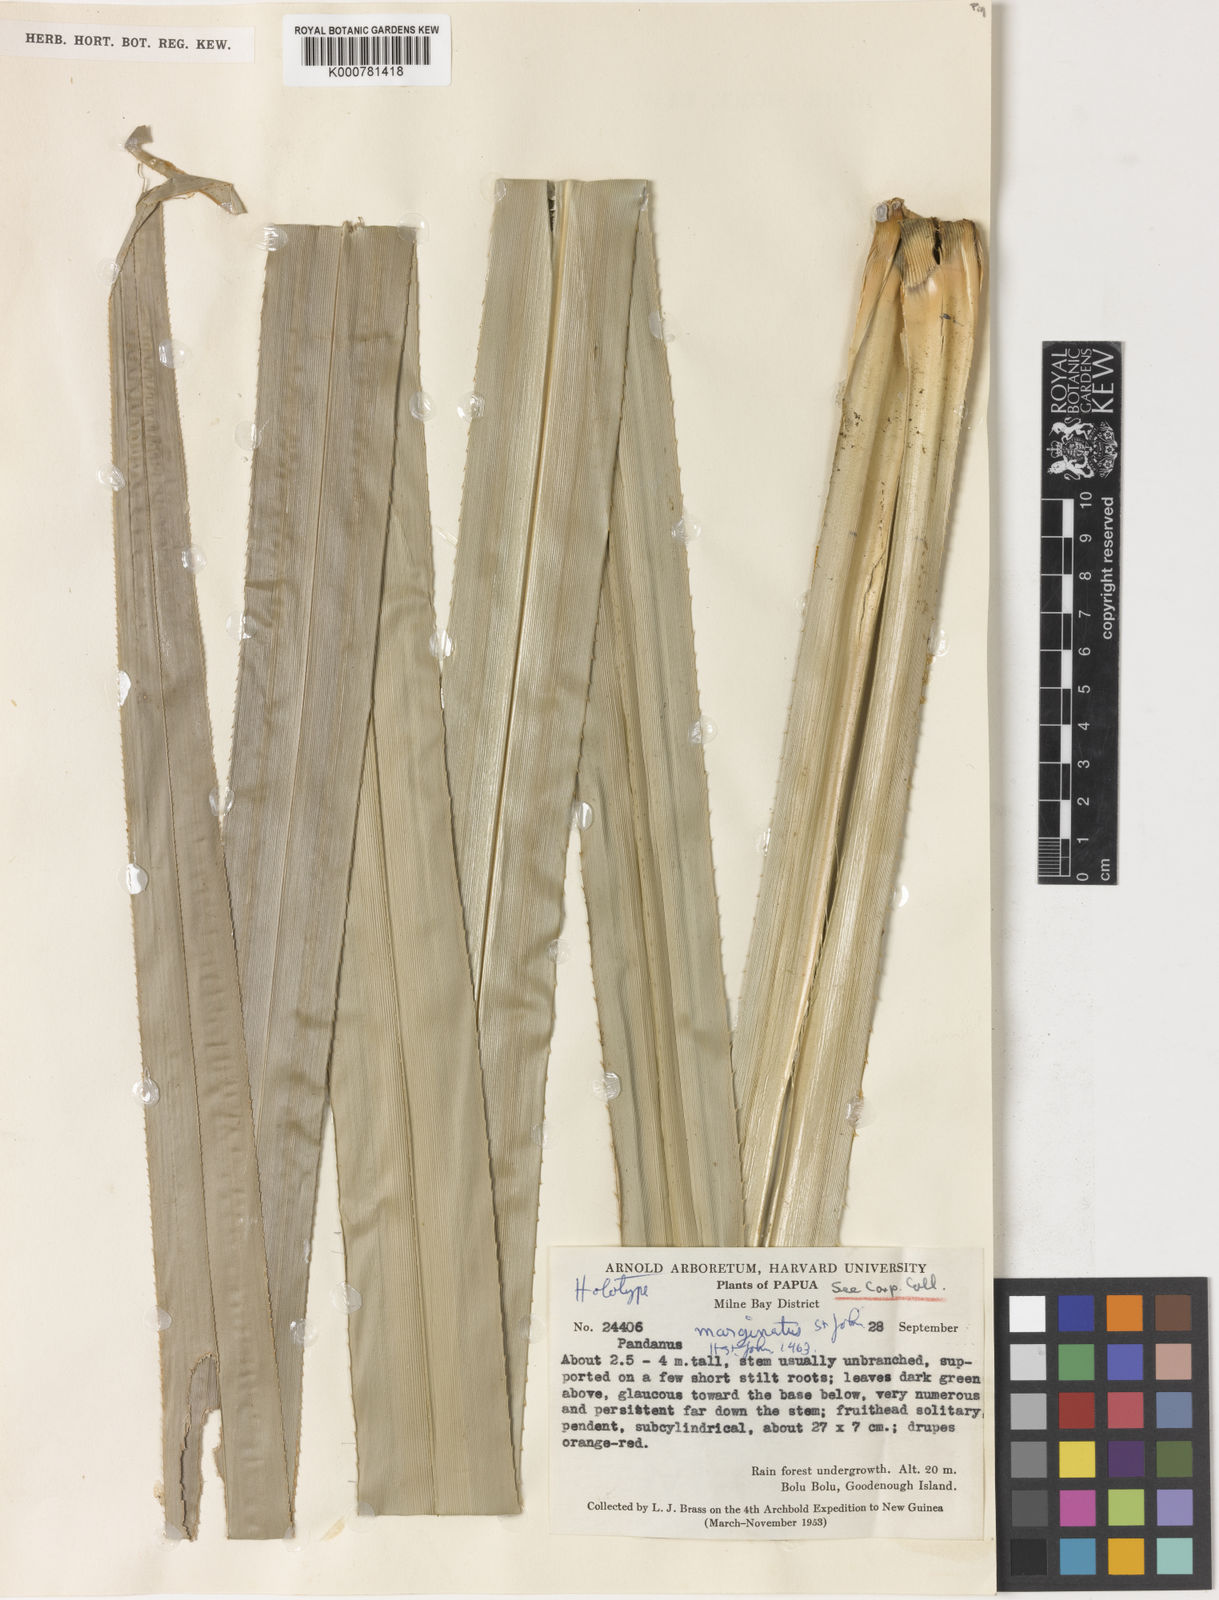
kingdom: Plantae
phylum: Tracheophyta
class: Liliopsida
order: Pandanales
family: Pandanaceae
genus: Pandanus
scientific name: Pandanus menicostigma
